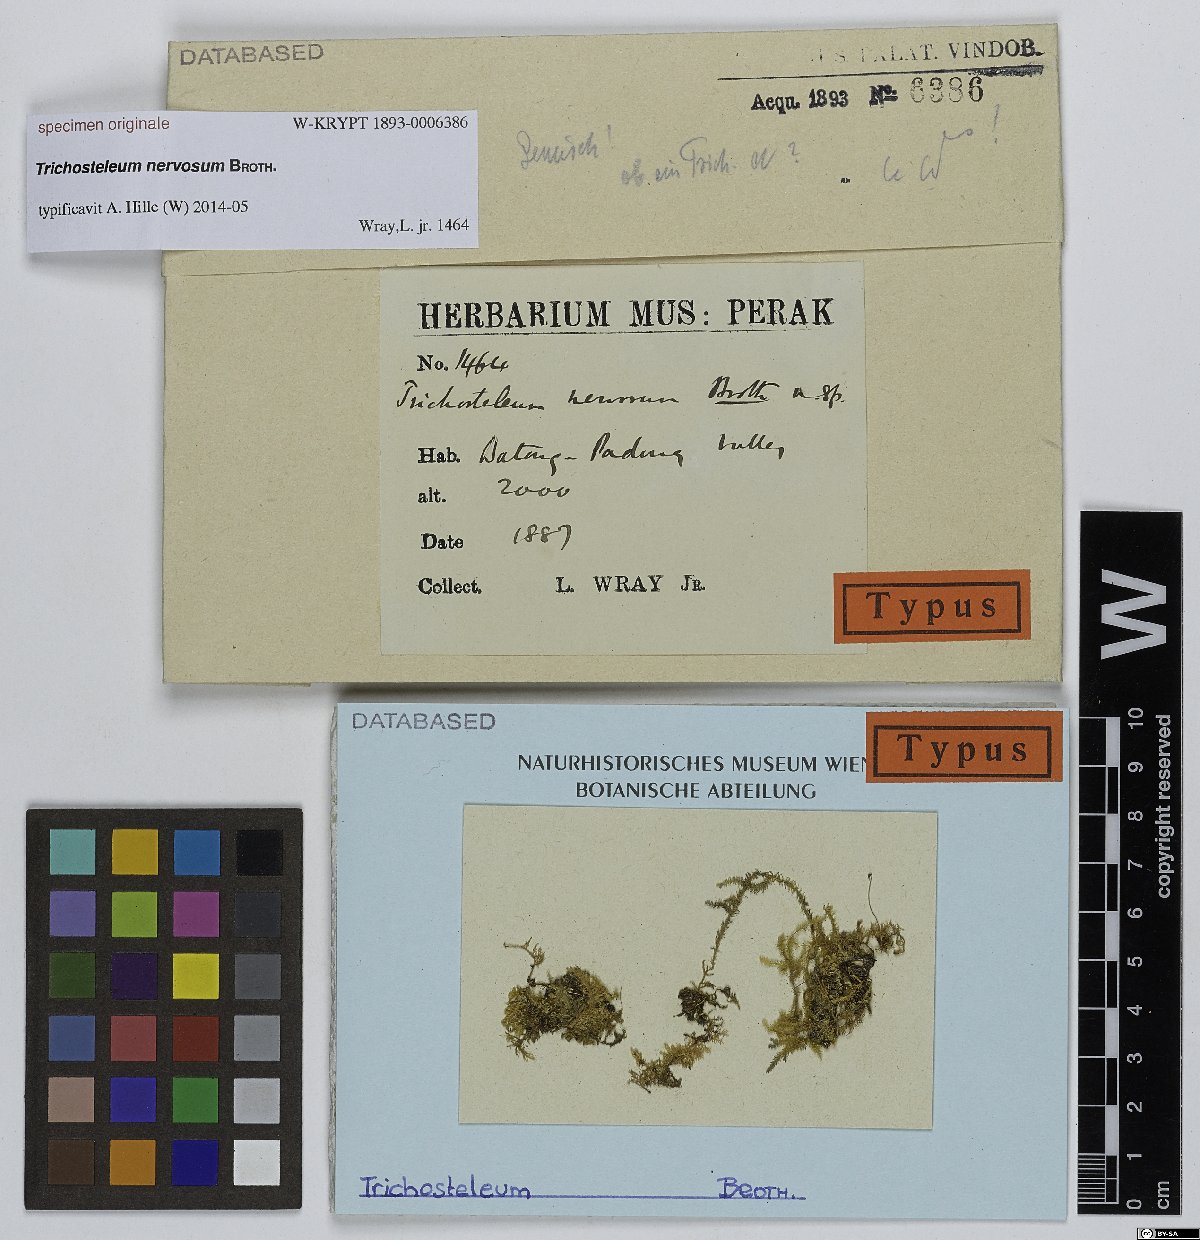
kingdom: Plantae
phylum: Bryophyta
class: Bryopsida
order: Hypnales
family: Sematophyllaceae
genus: Trichosteleum
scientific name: Trichosteleum
